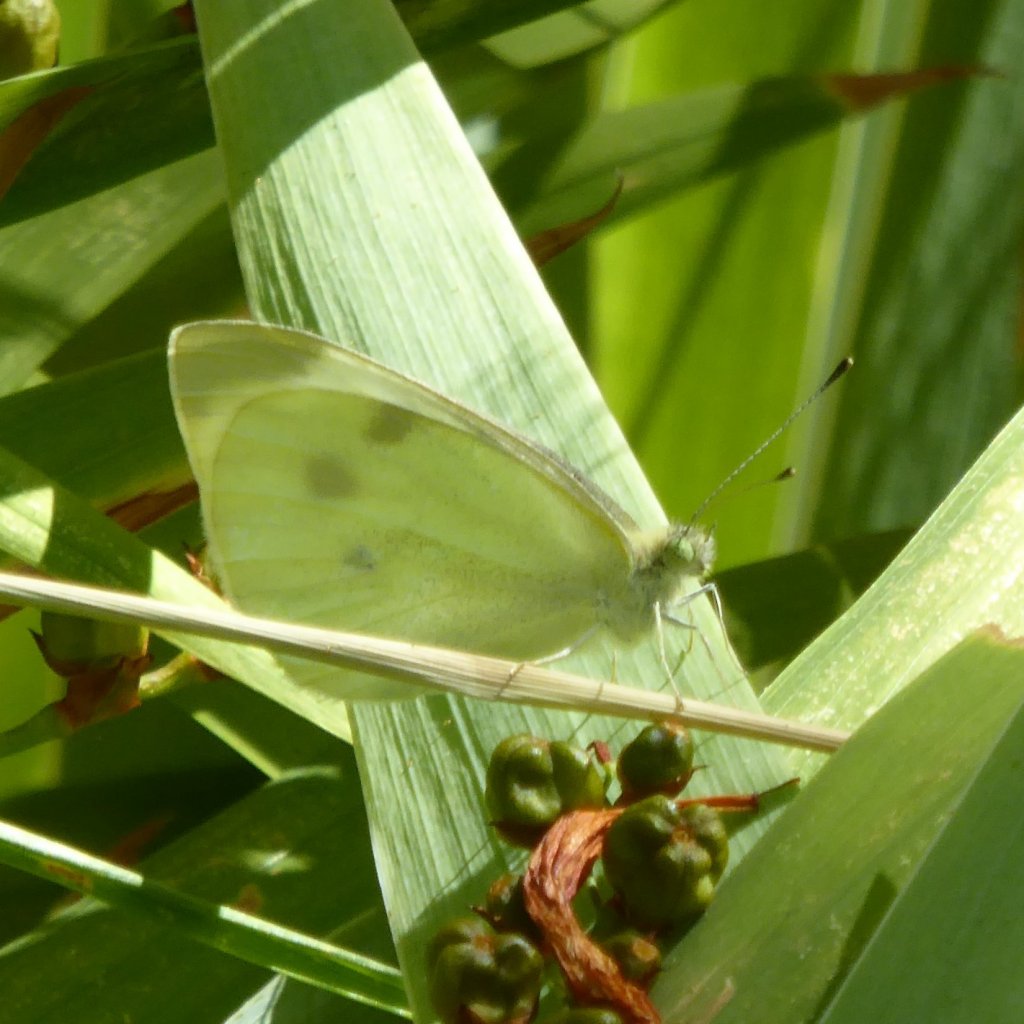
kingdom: Animalia
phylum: Arthropoda
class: Insecta
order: Lepidoptera
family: Pieridae
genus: Pieris
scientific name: Pieris rapae
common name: Cabbage White
